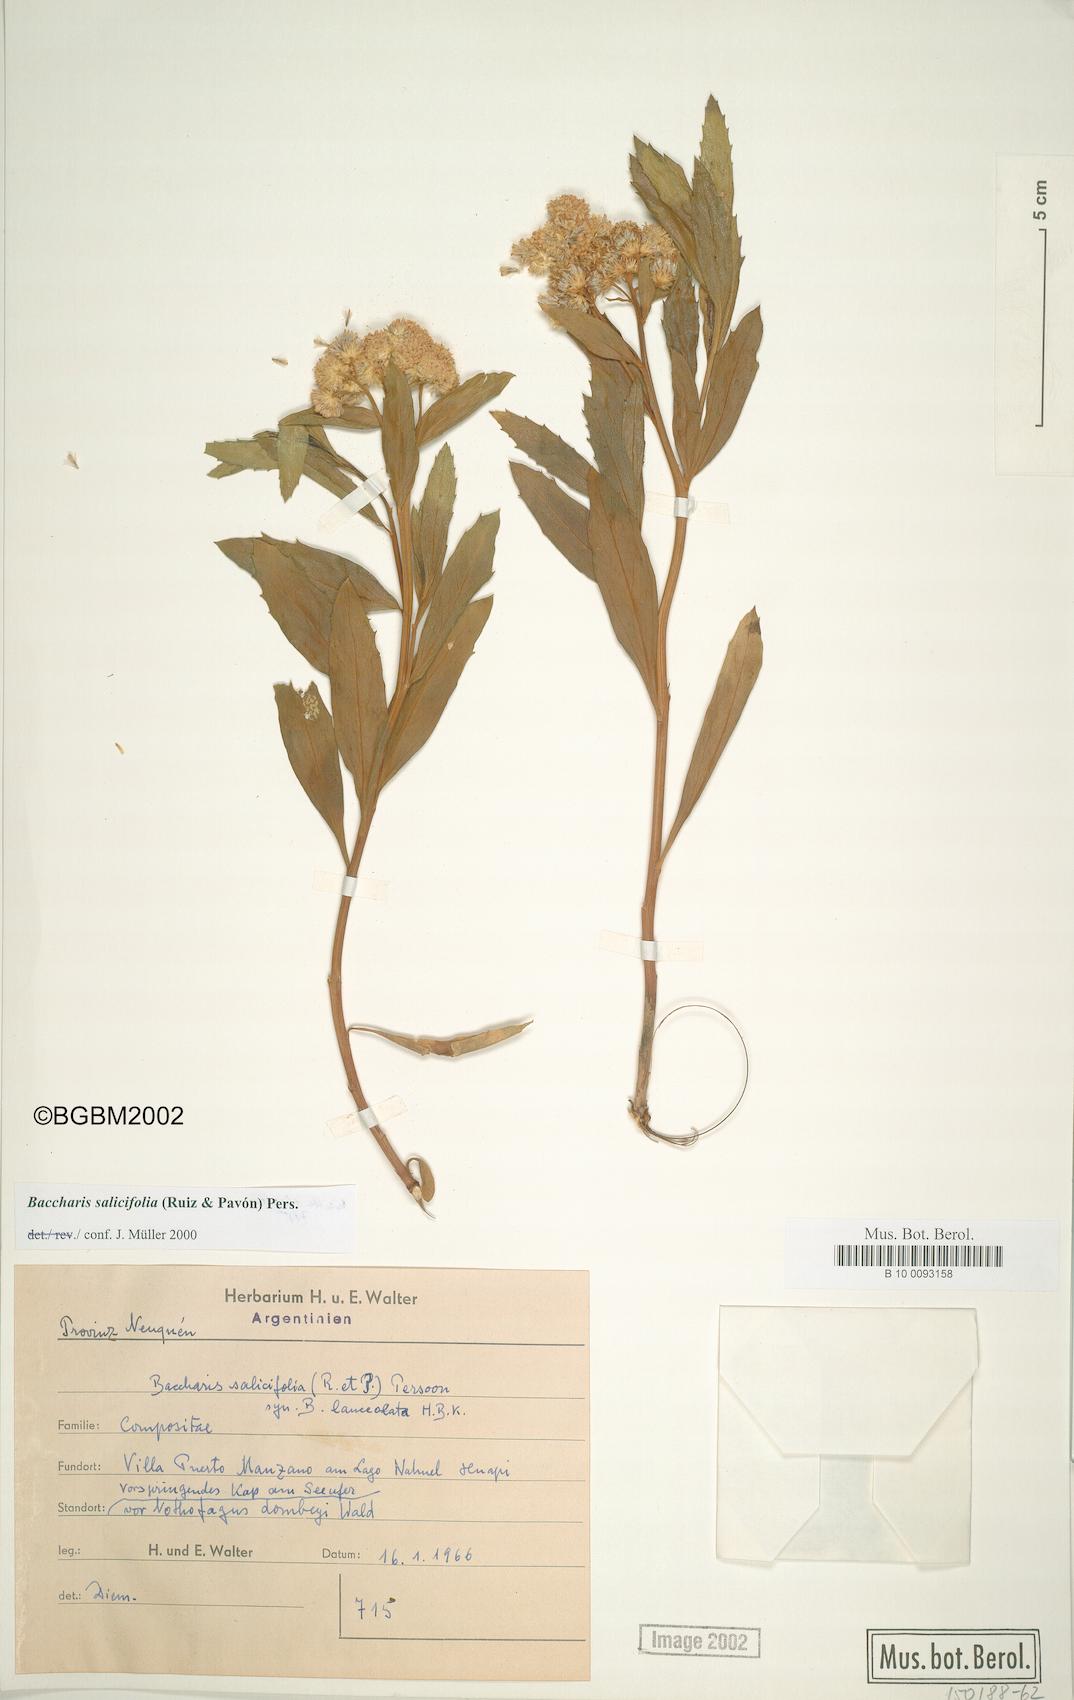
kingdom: Plantae
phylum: Tracheophyta
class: Magnoliopsida
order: Asterales
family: Asteraceae
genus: Baccharis
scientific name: Baccharis salicifolia
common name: Sticky baccharis
